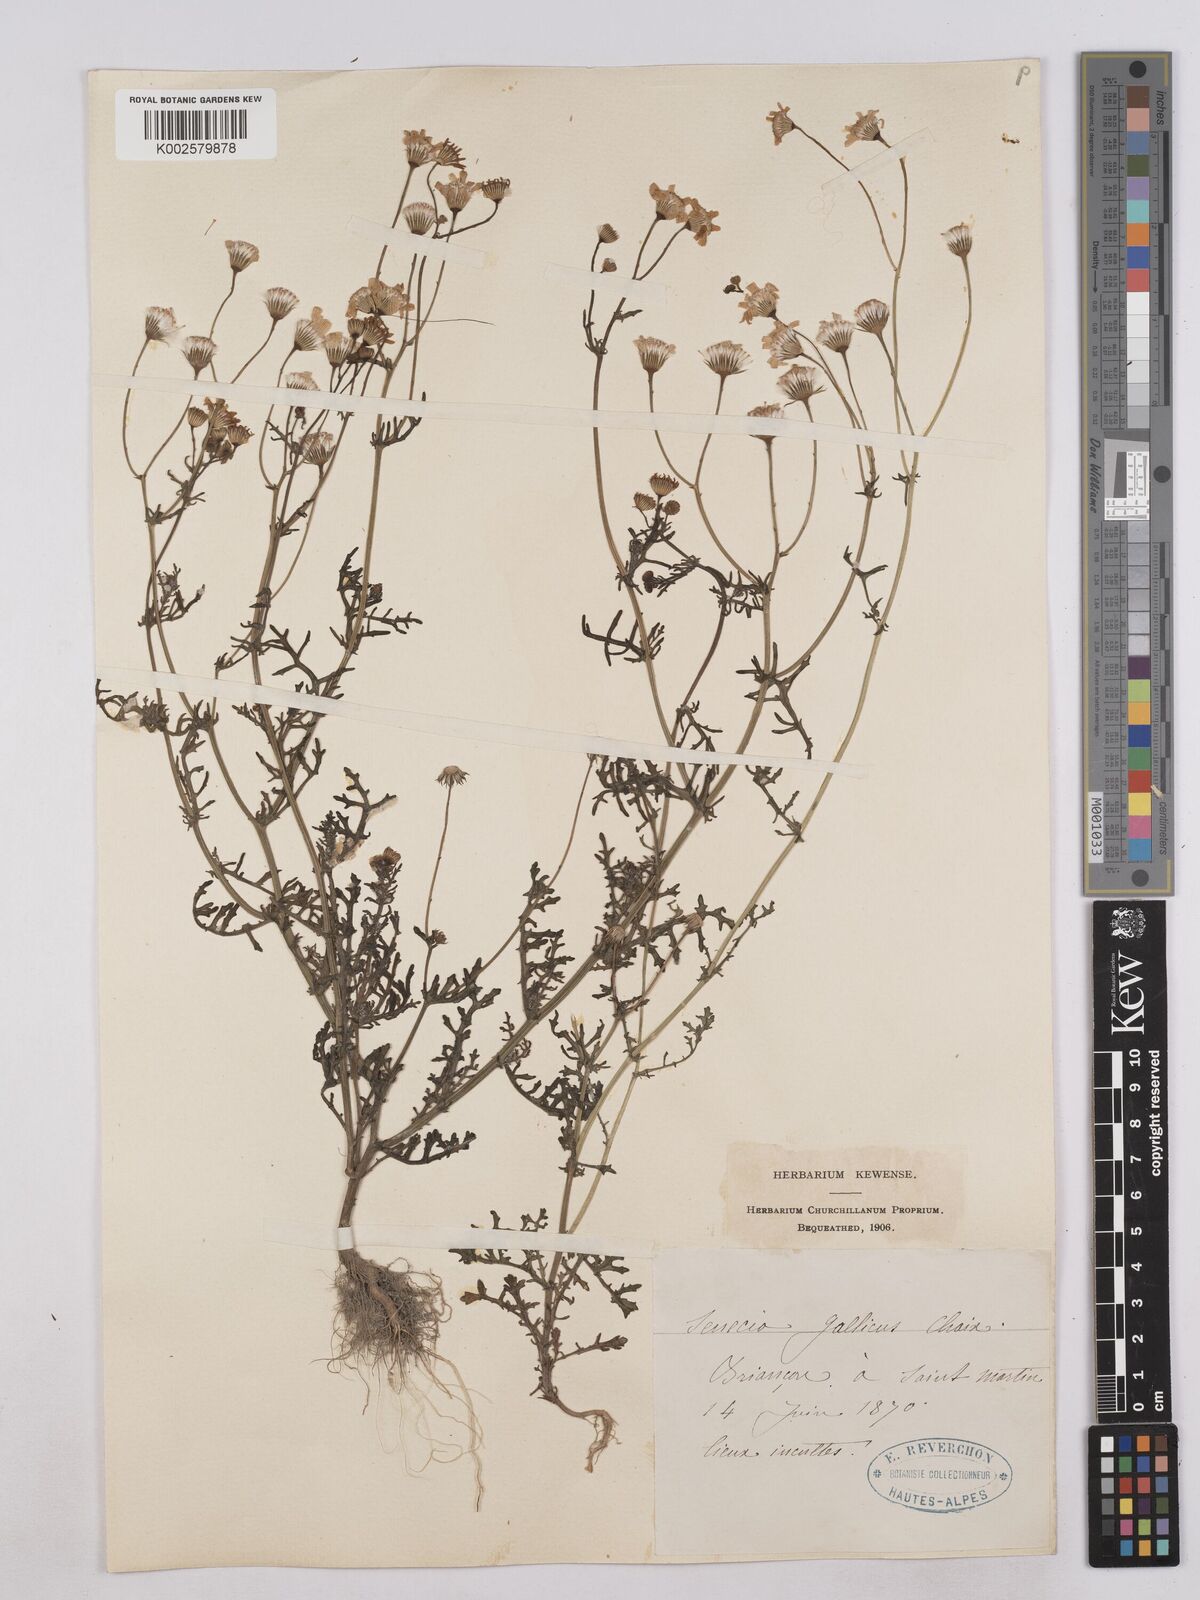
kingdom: Plantae
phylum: Tracheophyta
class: Magnoliopsida
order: Asterales
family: Asteraceae
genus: Senecio
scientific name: Senecio gallicus
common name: French groundsel
